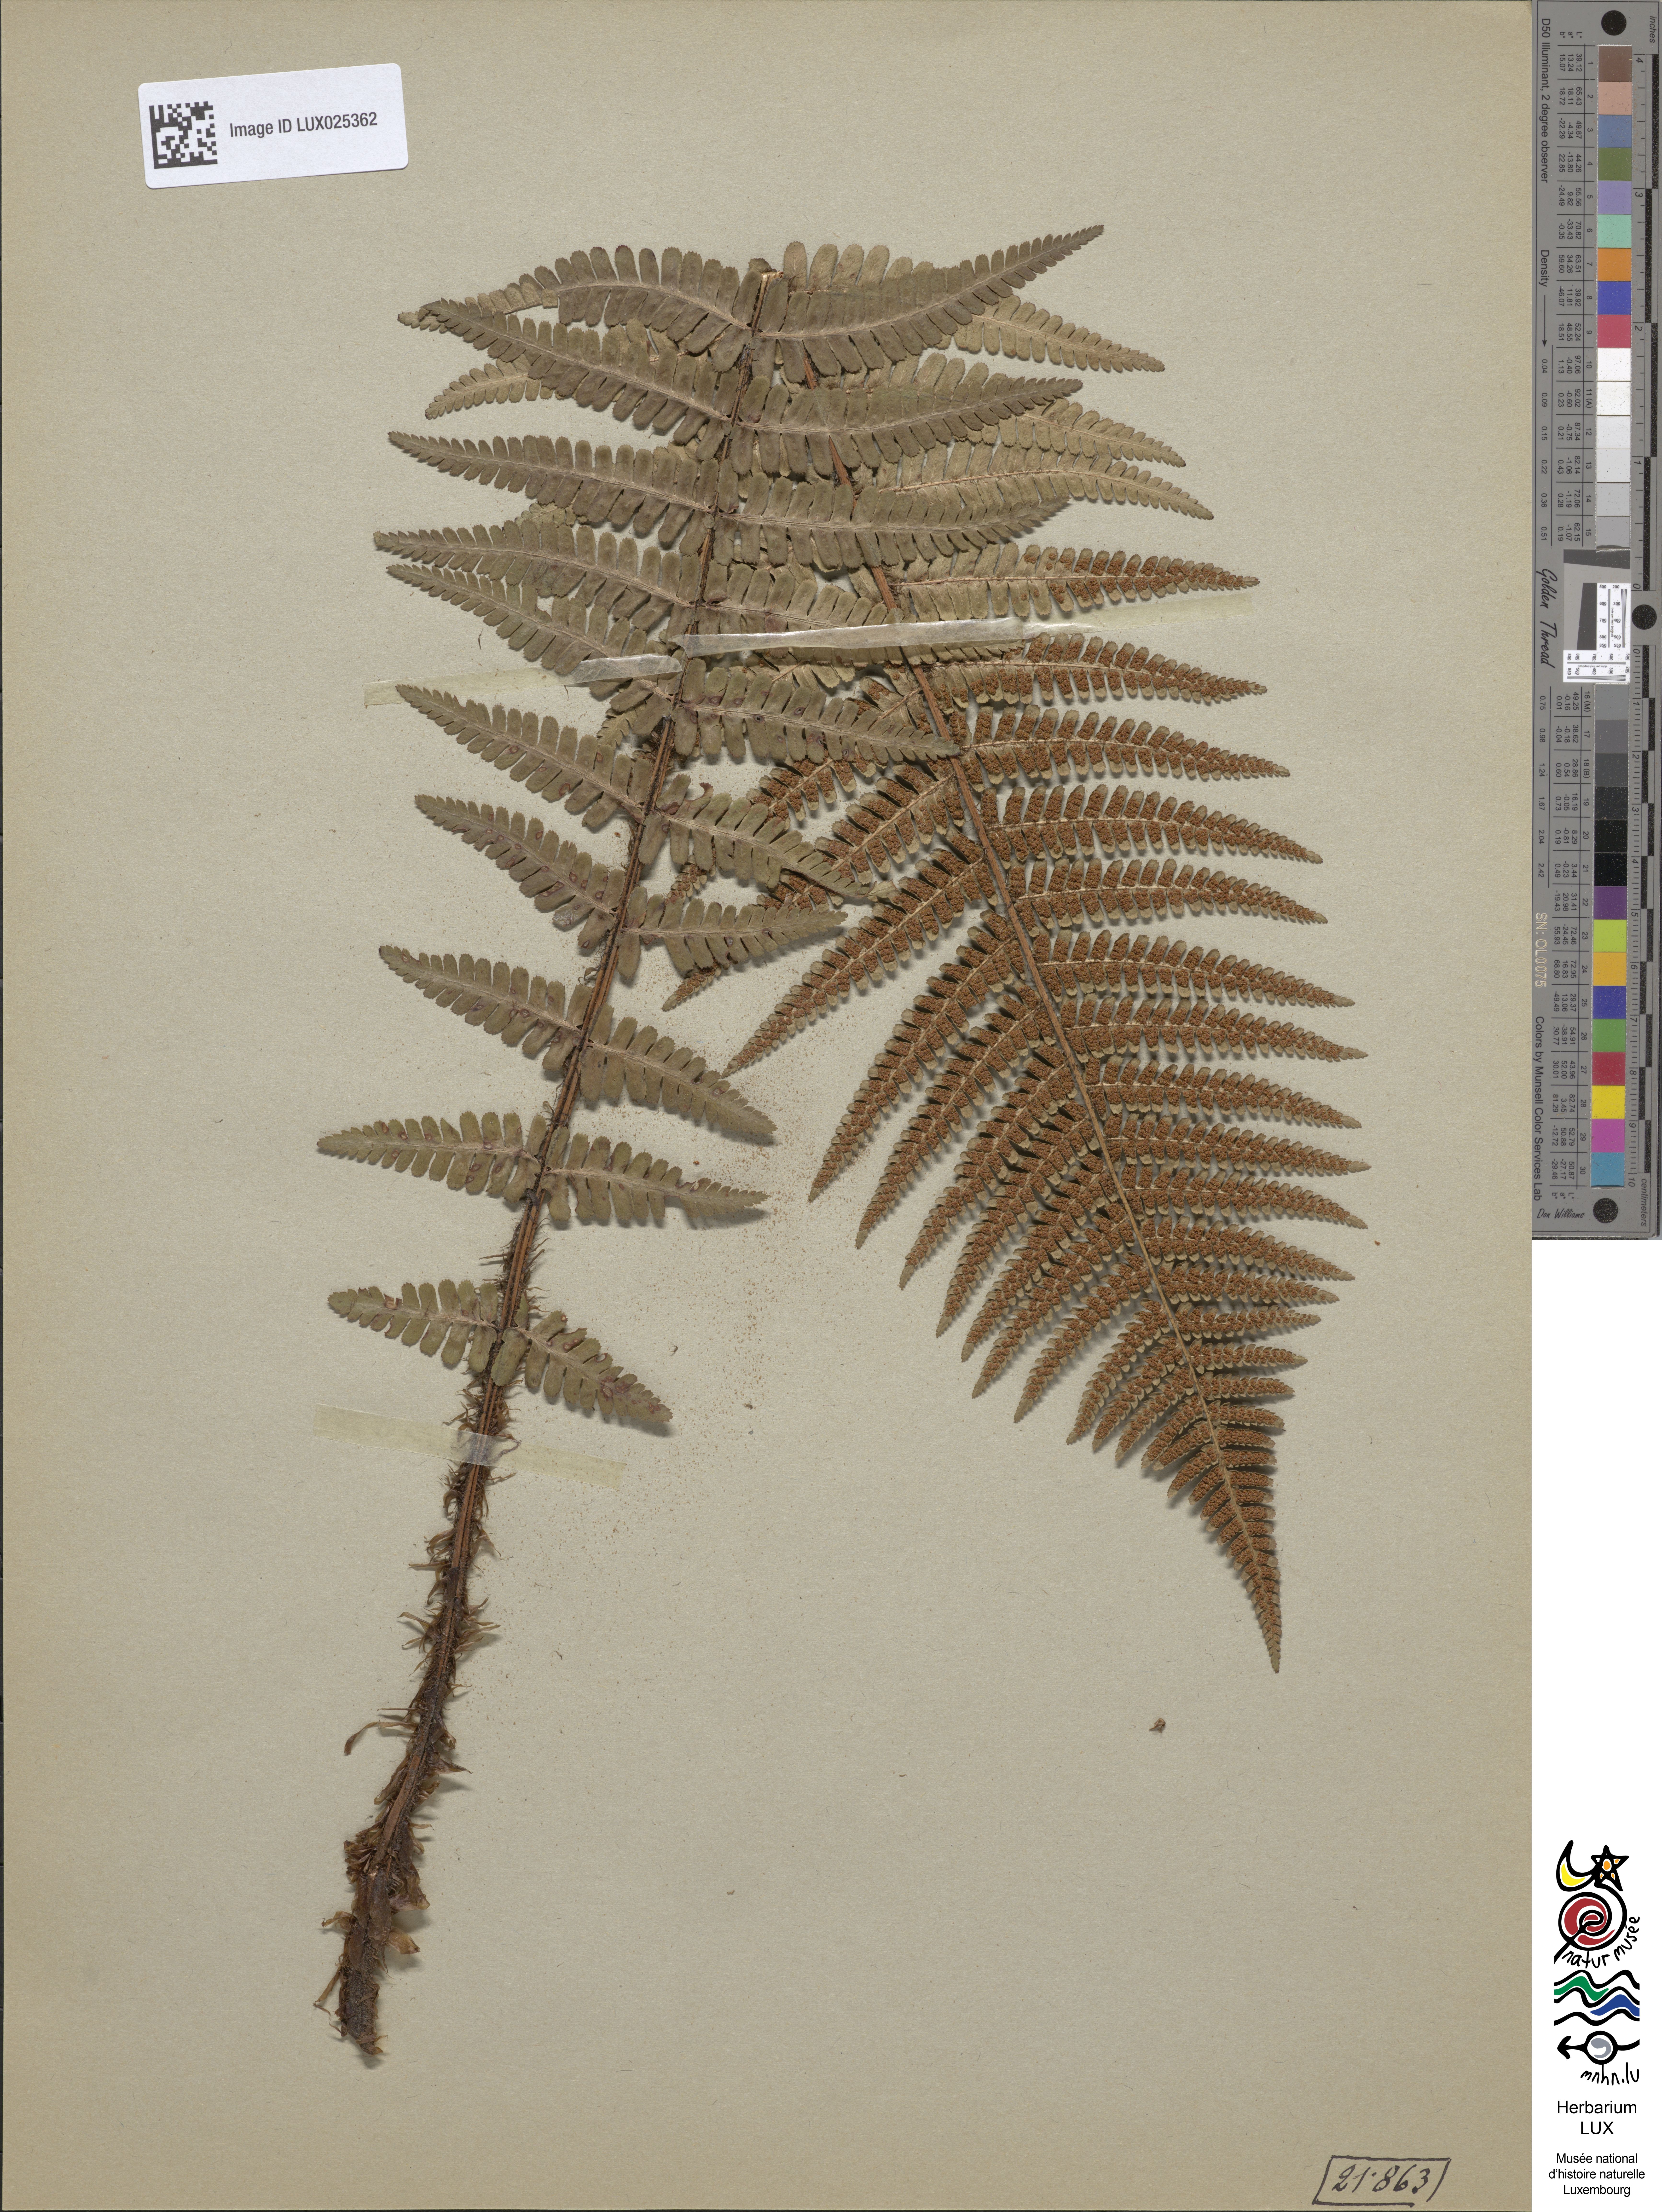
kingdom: Plantae
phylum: Tracheophyta
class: Polypodiopsida
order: Polypodiales
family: Dryopteridaceae
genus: Dryopteris
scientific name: Dryopteris cambrensis
